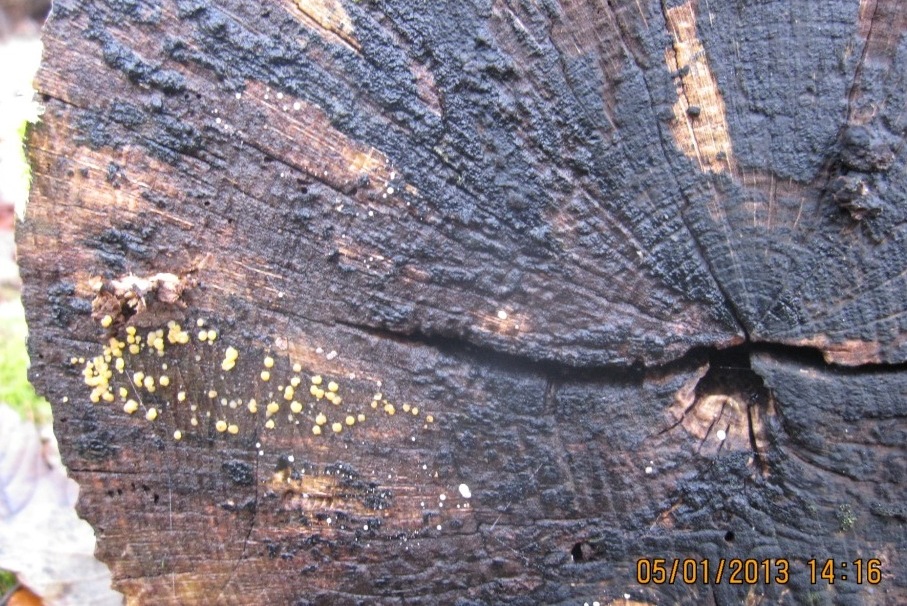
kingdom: Fungi
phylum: Ascomycota
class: Leotiomycetes
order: Helotiales
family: Helotiaceae
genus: Bisporella
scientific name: Bisporella subpallida
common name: lys snitskive
